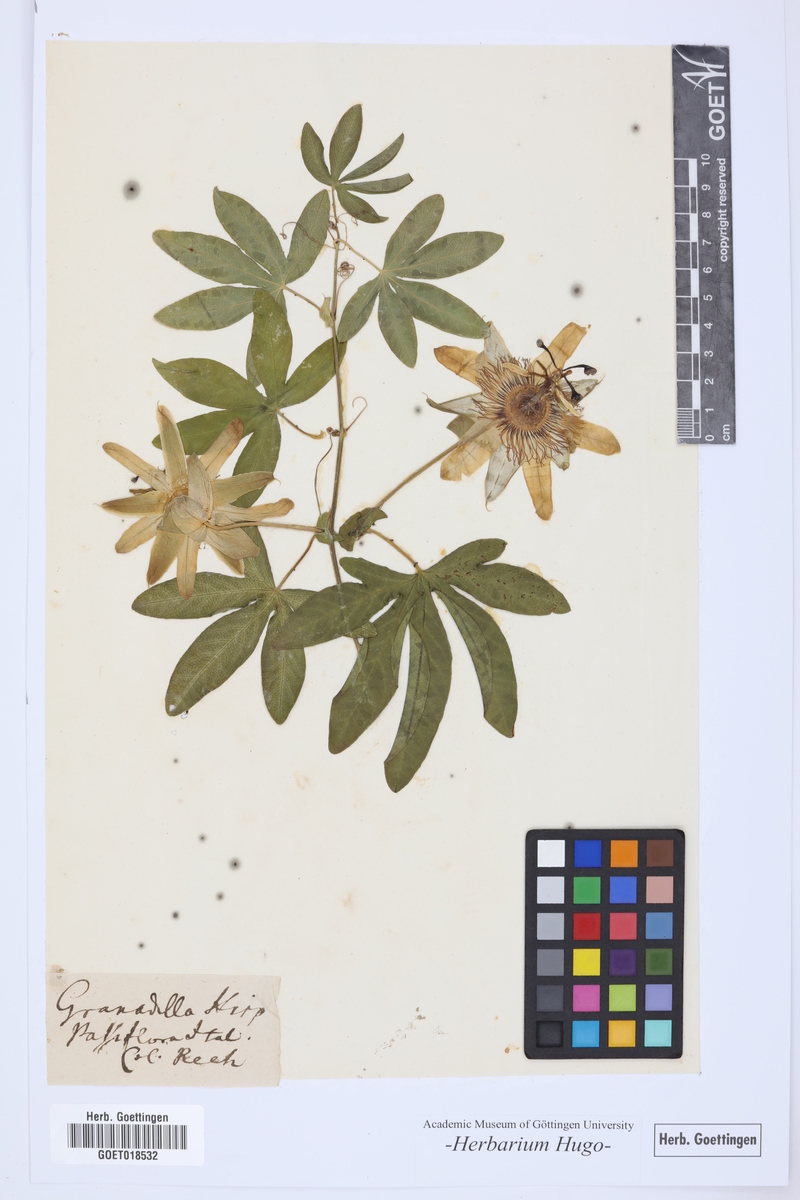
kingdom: Plantae
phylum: Tracheophyta
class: Magnoliopsida
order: Malpighiales
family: Passifloraceae
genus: Passiflora
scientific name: Passiflora edulis
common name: Purple granadilla
